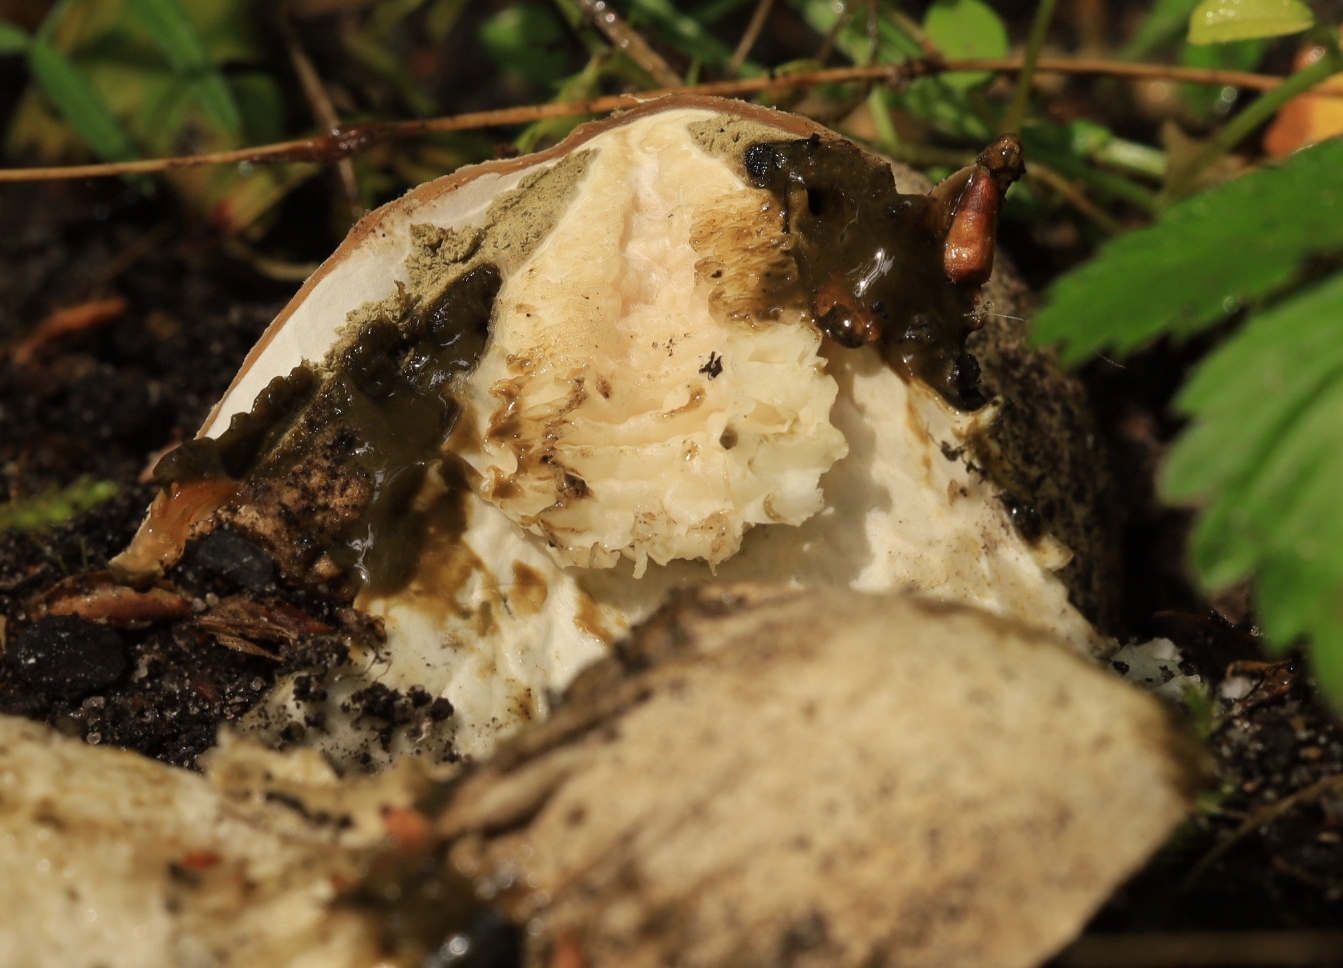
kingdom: Fungi
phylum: Basidiomycota
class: Agaricomycetes
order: Phallales
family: Phallaceae
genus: Phallus
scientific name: Phallus impudicus
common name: almindelig stinksvamp
